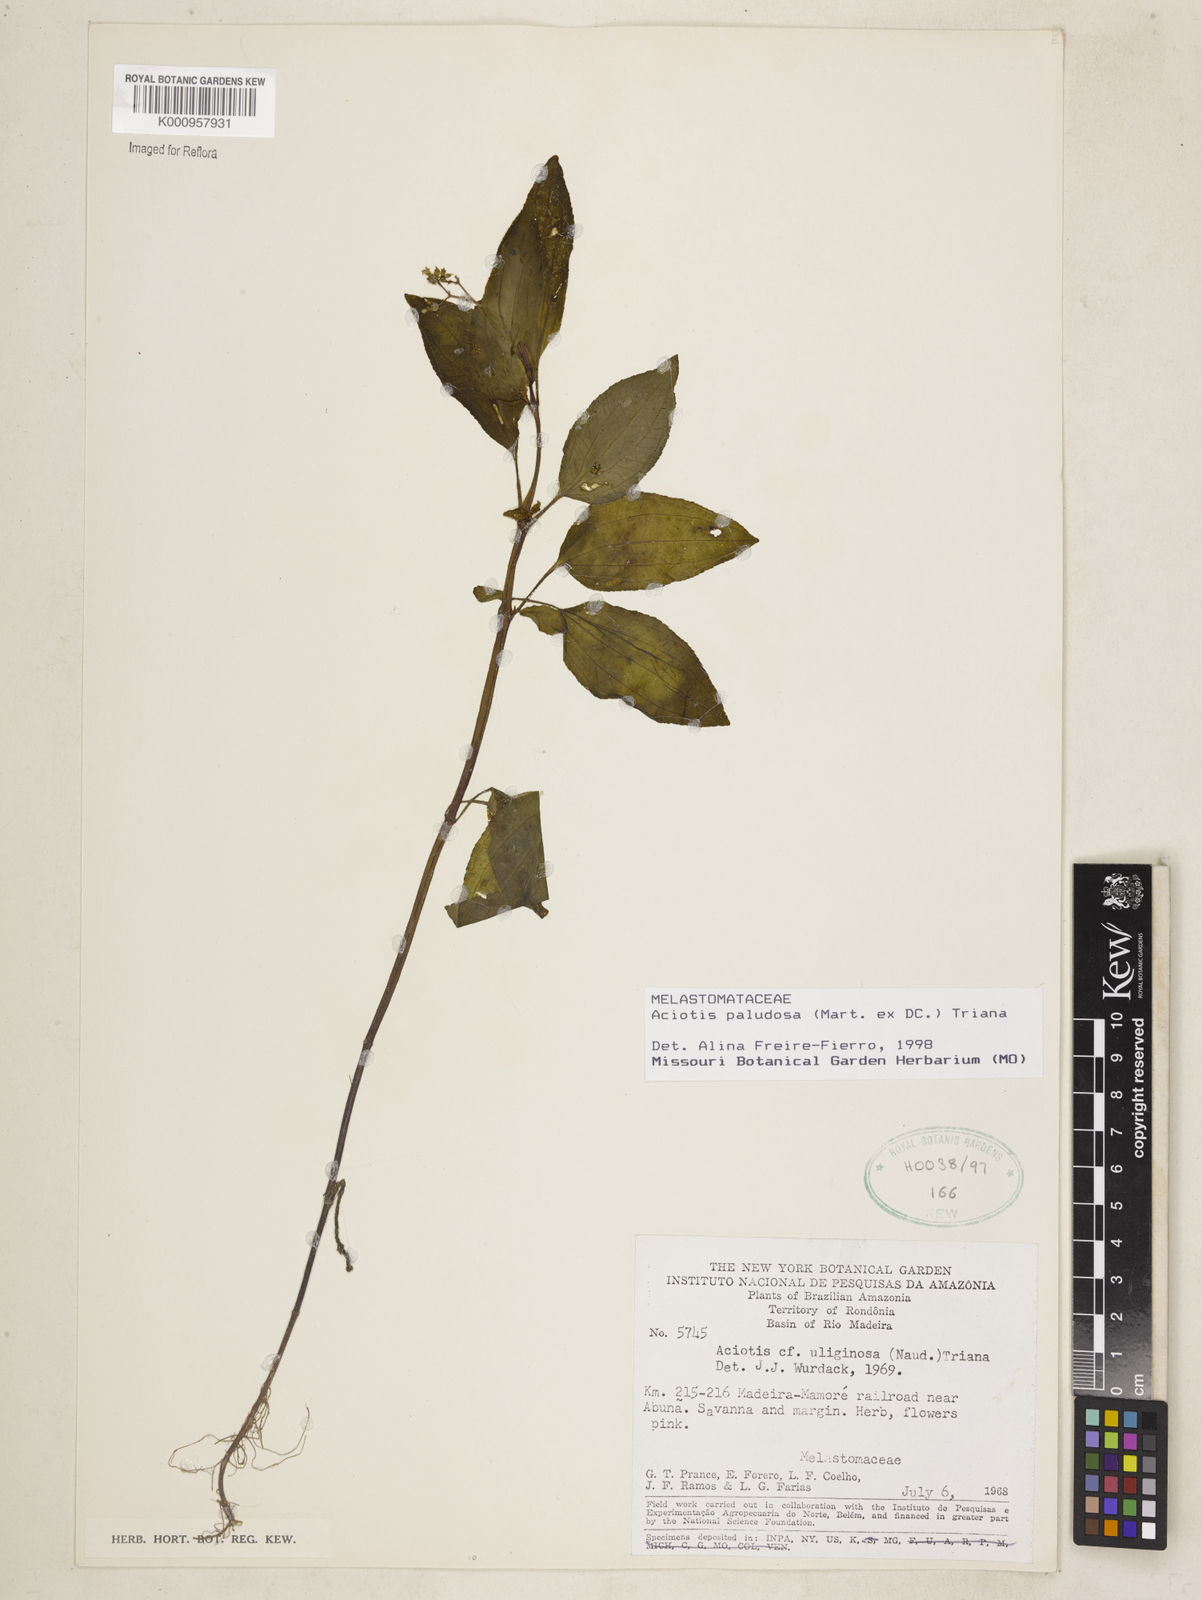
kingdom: Plantae
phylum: Tracheophyta
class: Magnoliopsida
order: Myrtales
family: Melastomataceae
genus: Aciotis
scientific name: Aciotis paludosa
